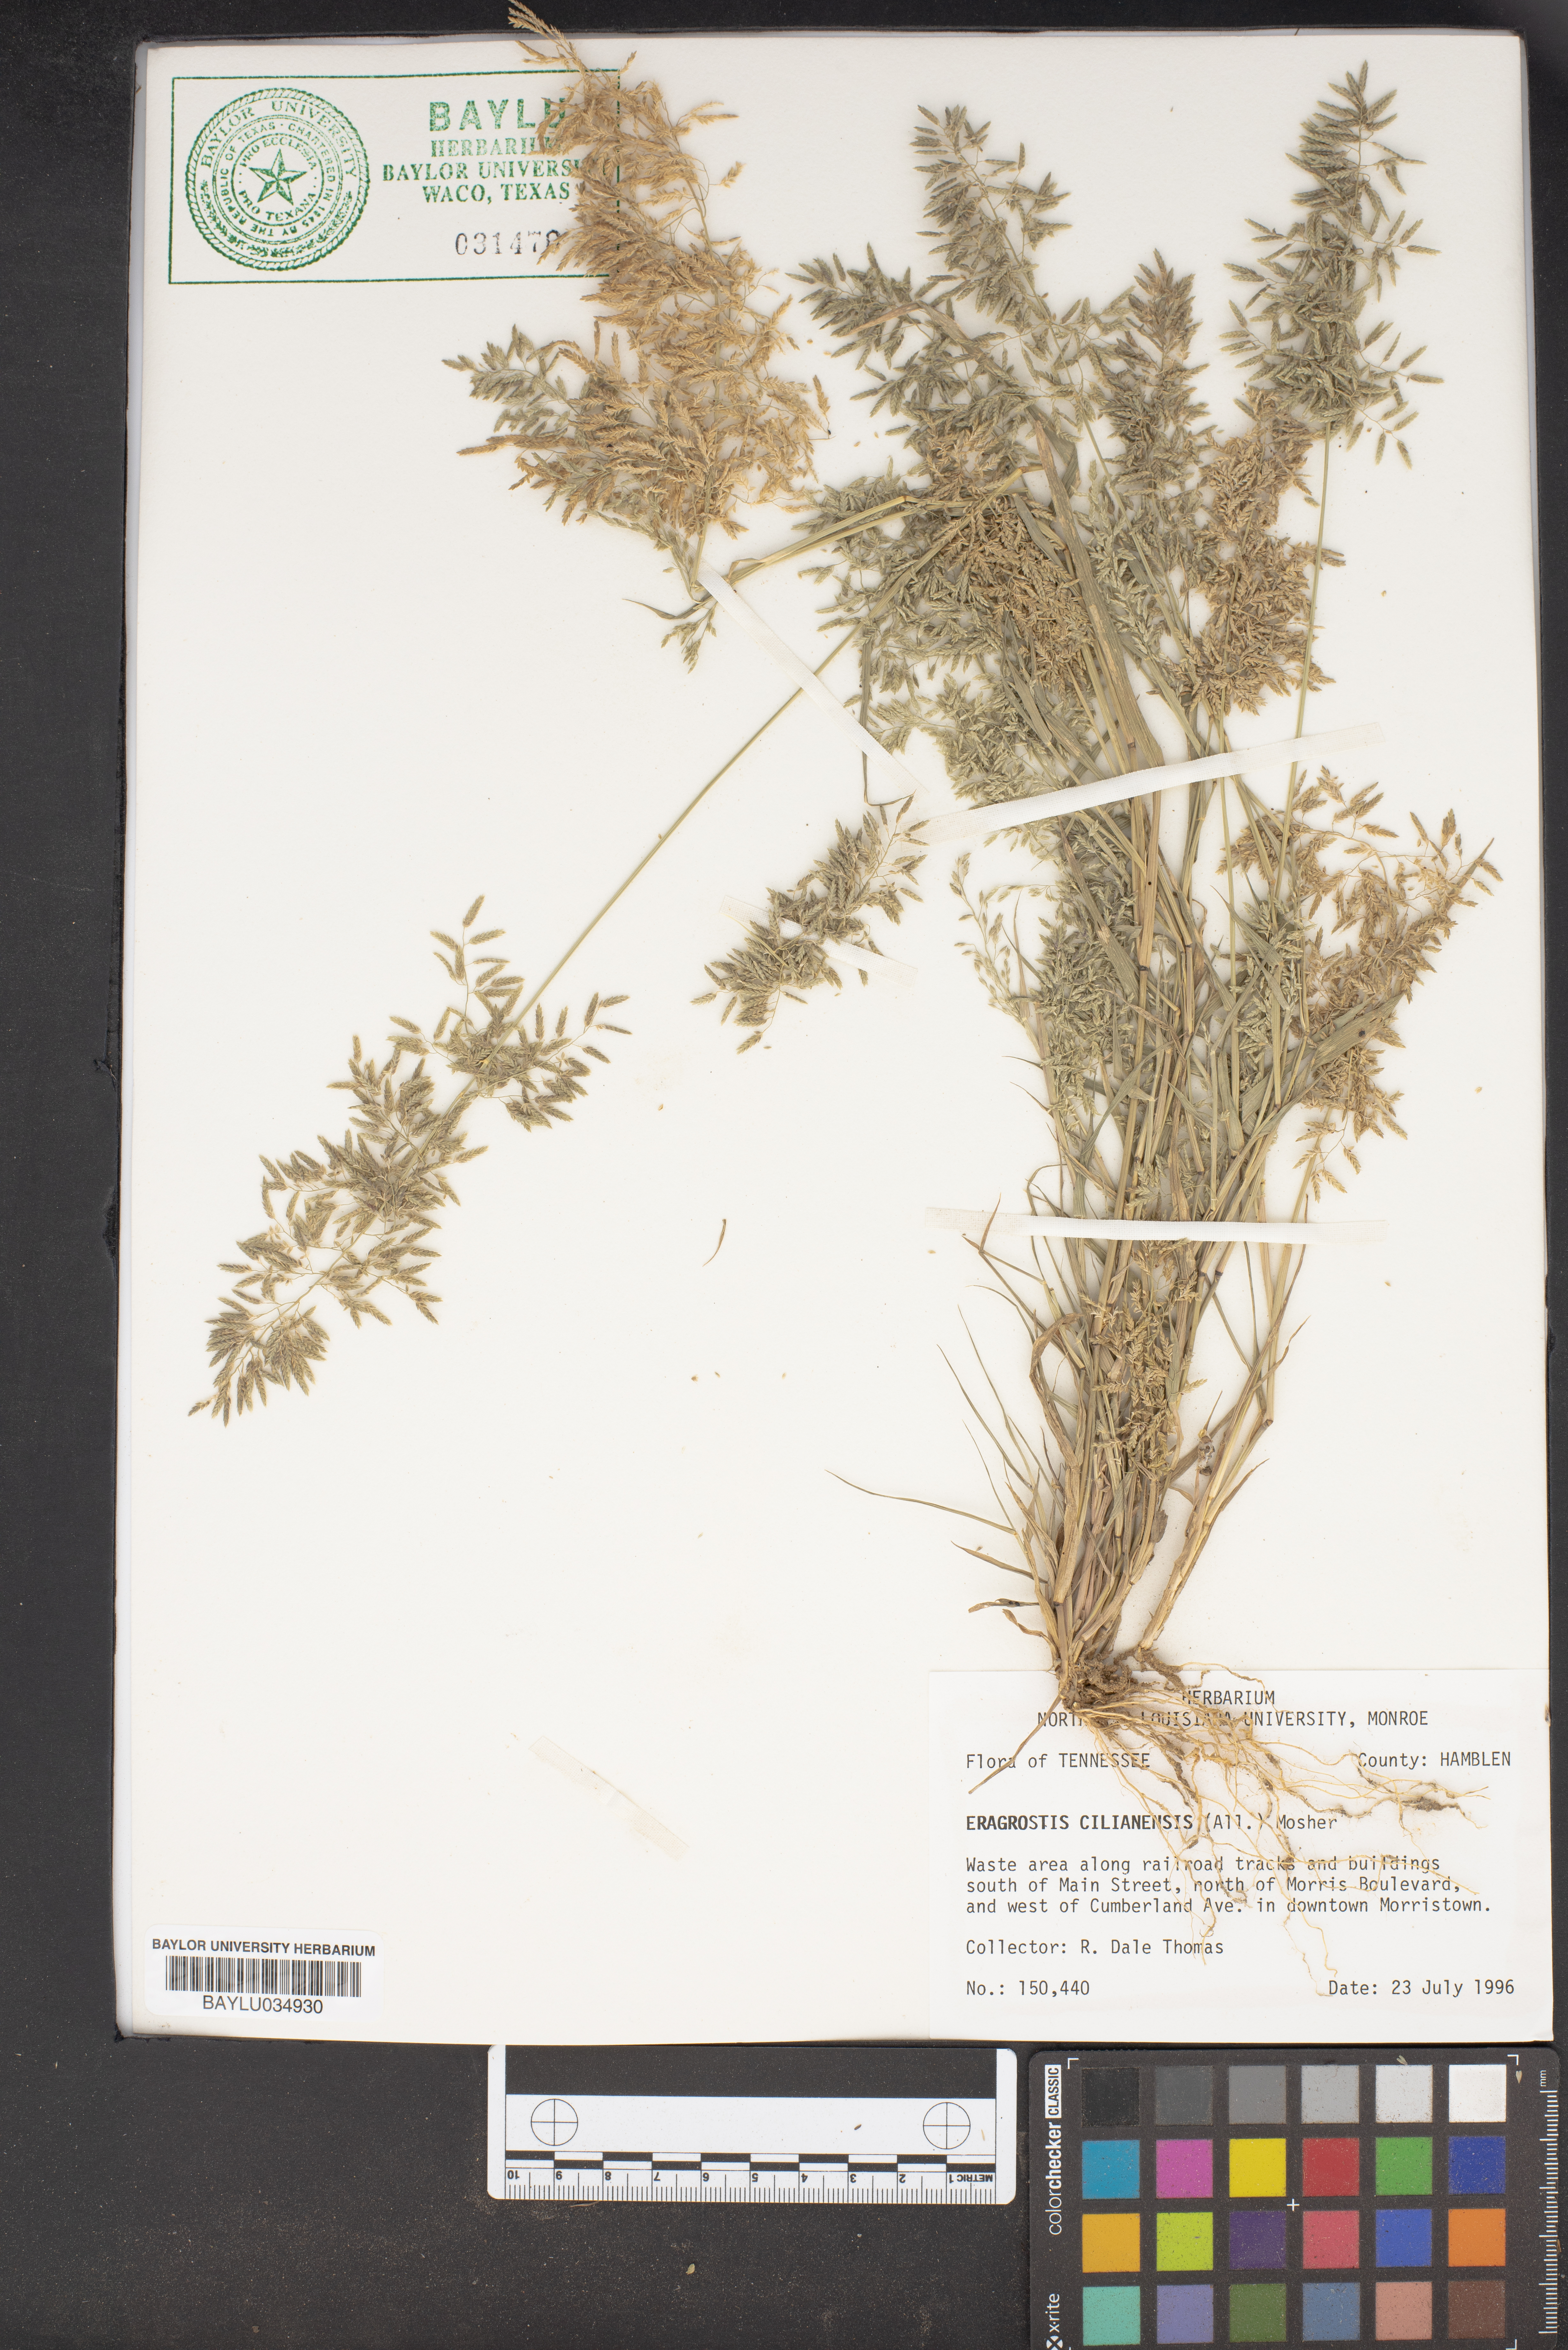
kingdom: Plantae
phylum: Tracheophyta
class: Liliopsida
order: Poales
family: Poaceae
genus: Eragrostis
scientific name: Eragrostis cilianensis
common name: Stinkgrass
